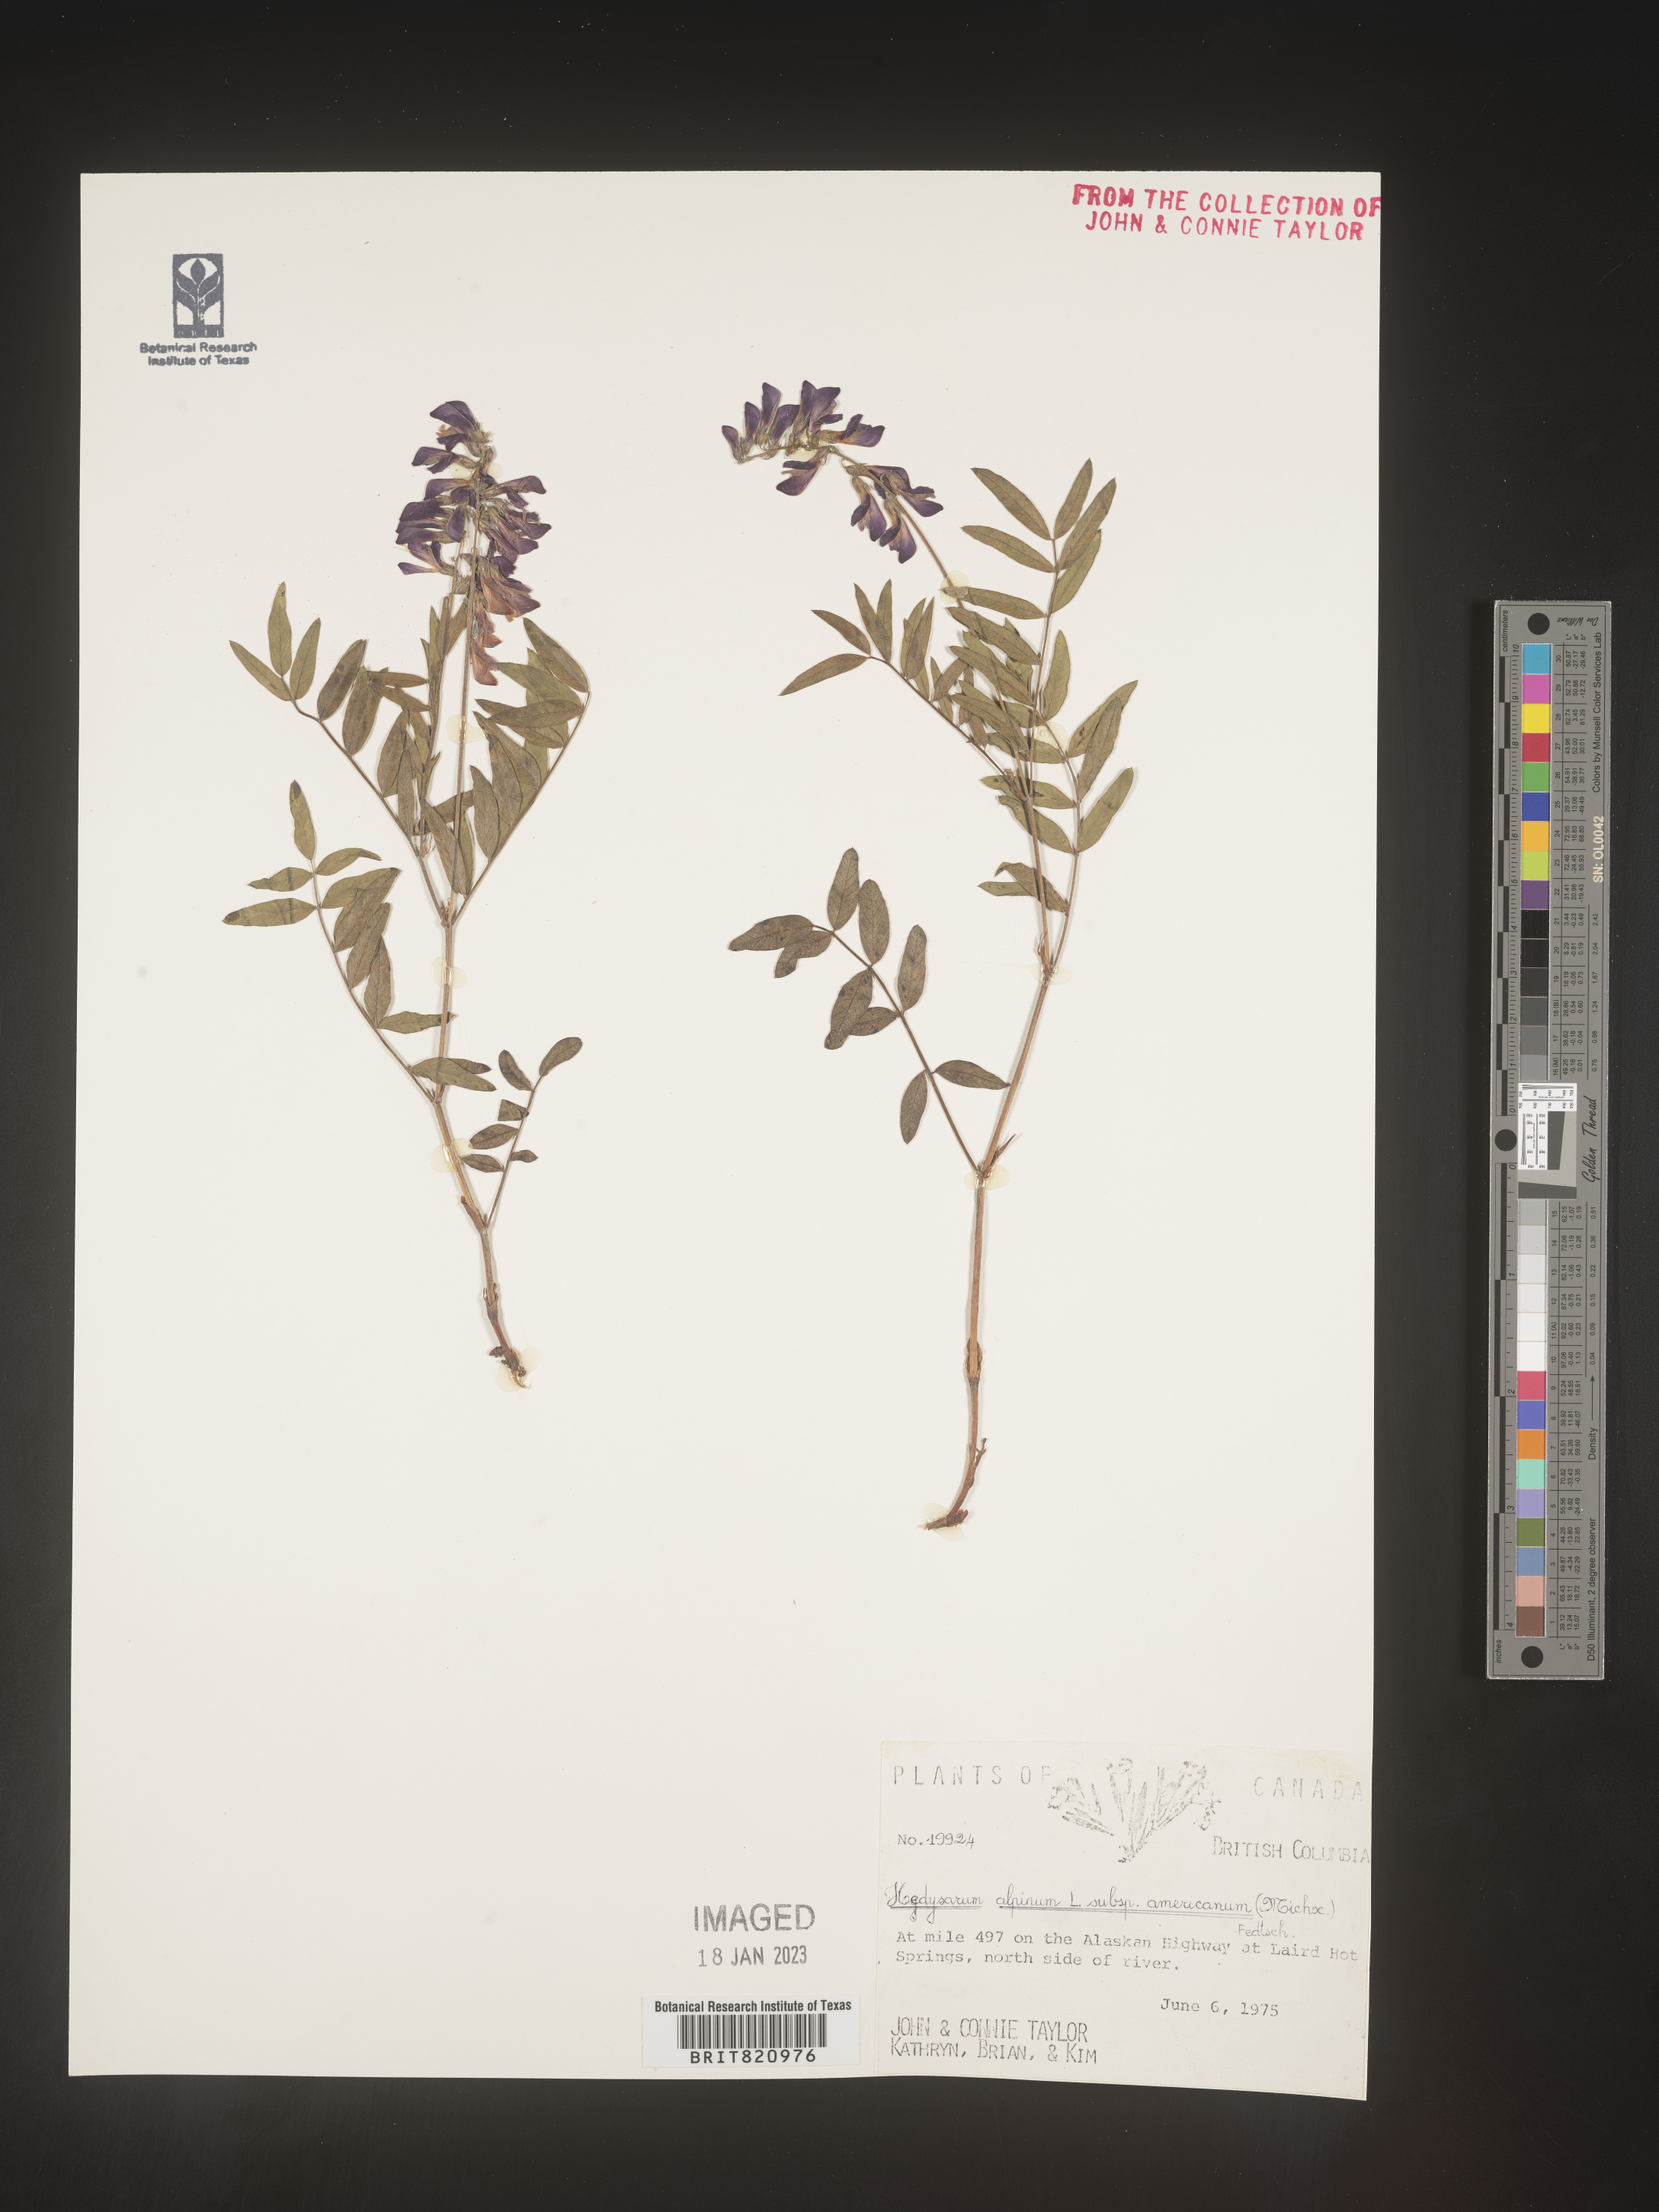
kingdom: Plantae
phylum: Tracheophyta
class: Magnoliopsida
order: Fabales
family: Fabaceae
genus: Hedysarum
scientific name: Hedysarum alpinum
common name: Alpine sweet-vetch
